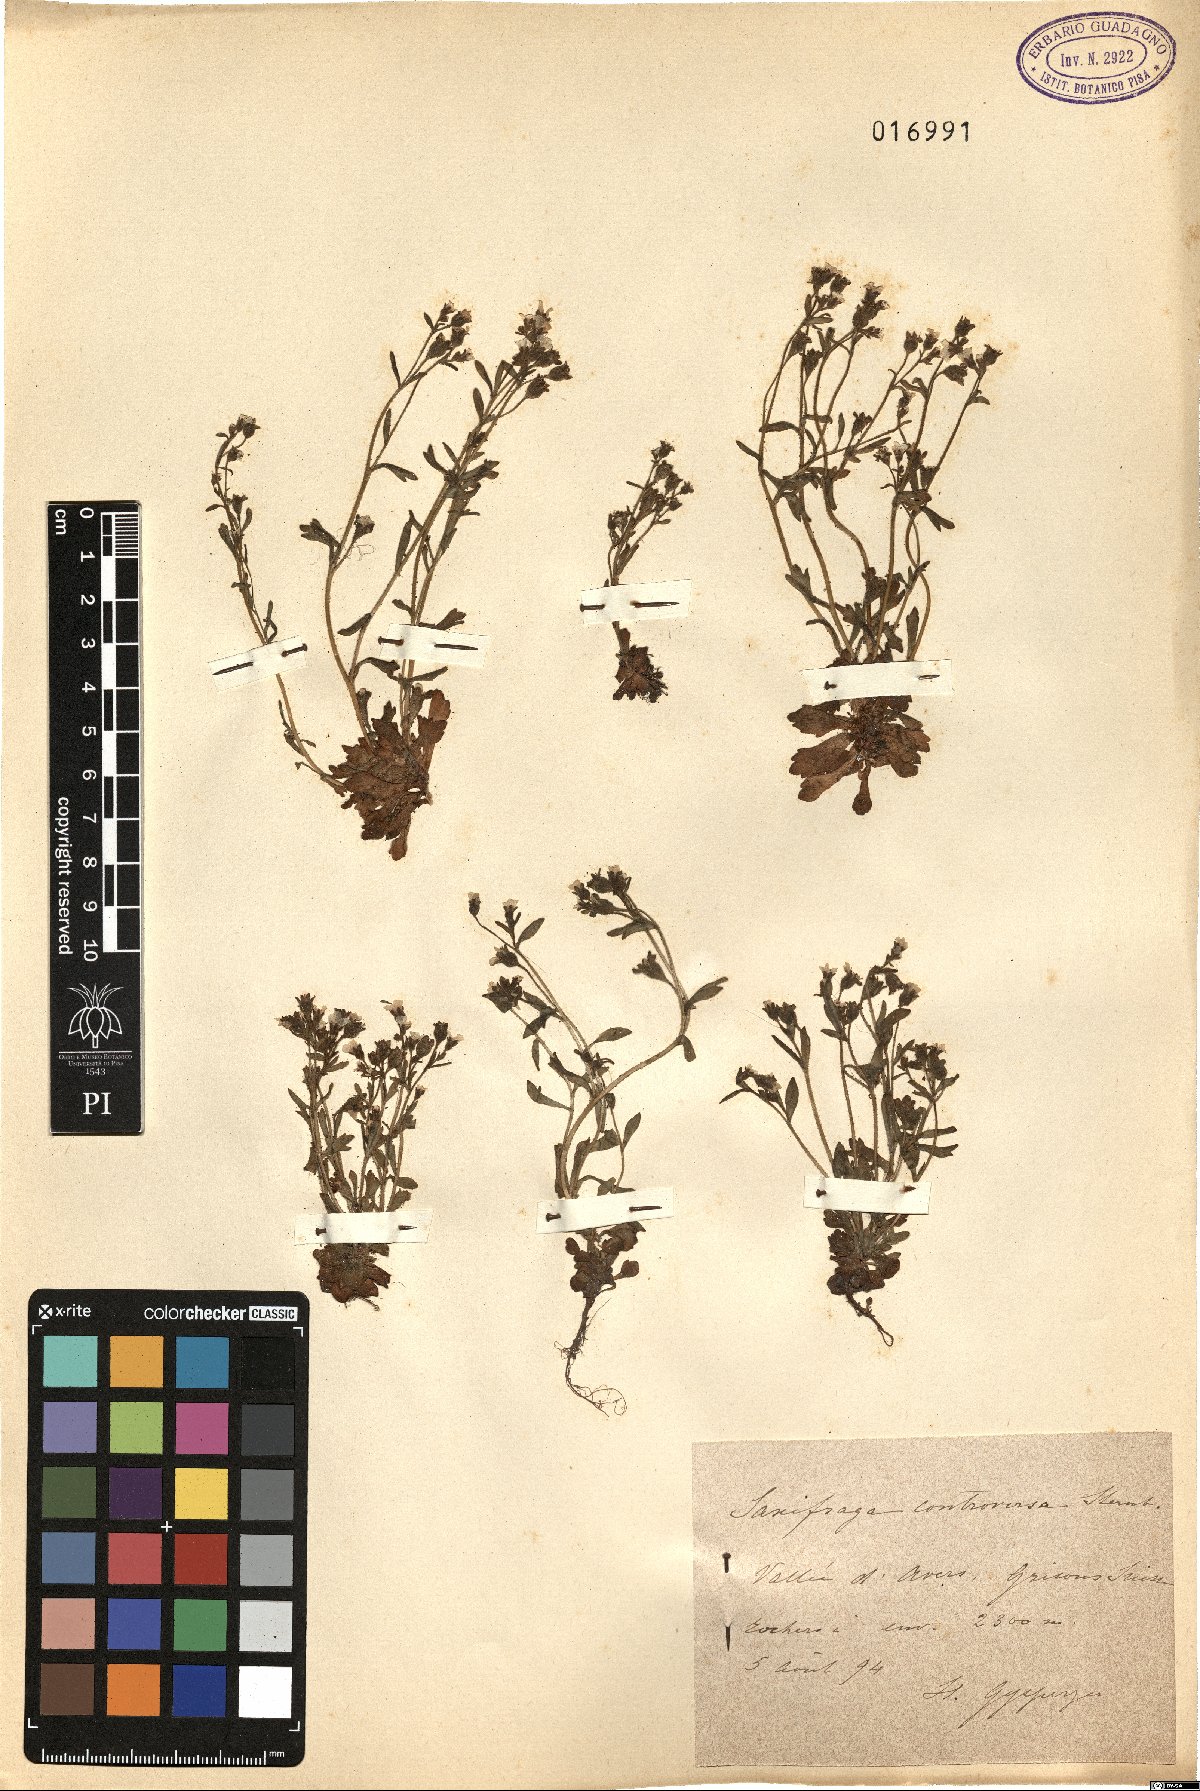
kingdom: Plantae
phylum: Tracheophyta
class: Magnoliopsida
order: Saxifragales
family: Saxifragaceae
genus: Saxifraga
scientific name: Saxifraga adscendens
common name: Ascending saxifrage
